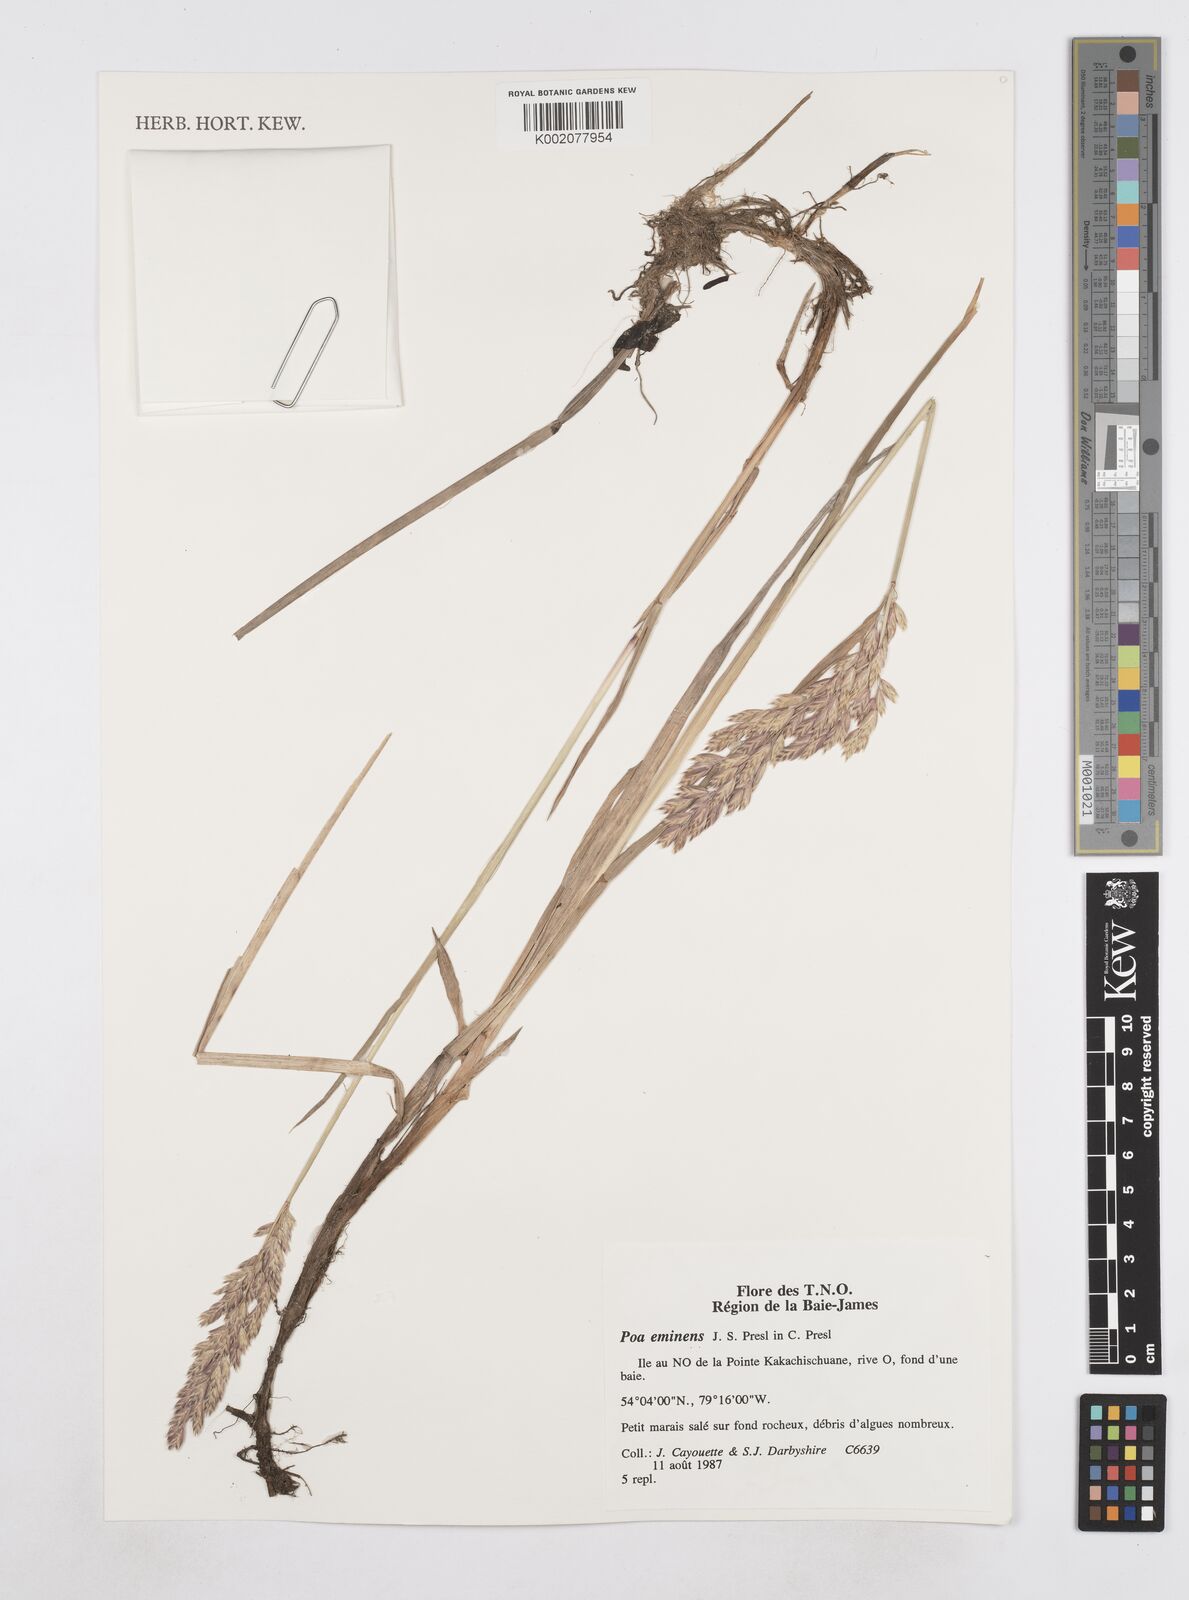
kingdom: Plantae
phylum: Tracheophyta
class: Liliopsida
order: Poales
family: Poaceae
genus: Arctopoa
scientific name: Arctopoa eminens
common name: Eminent bluegrass
